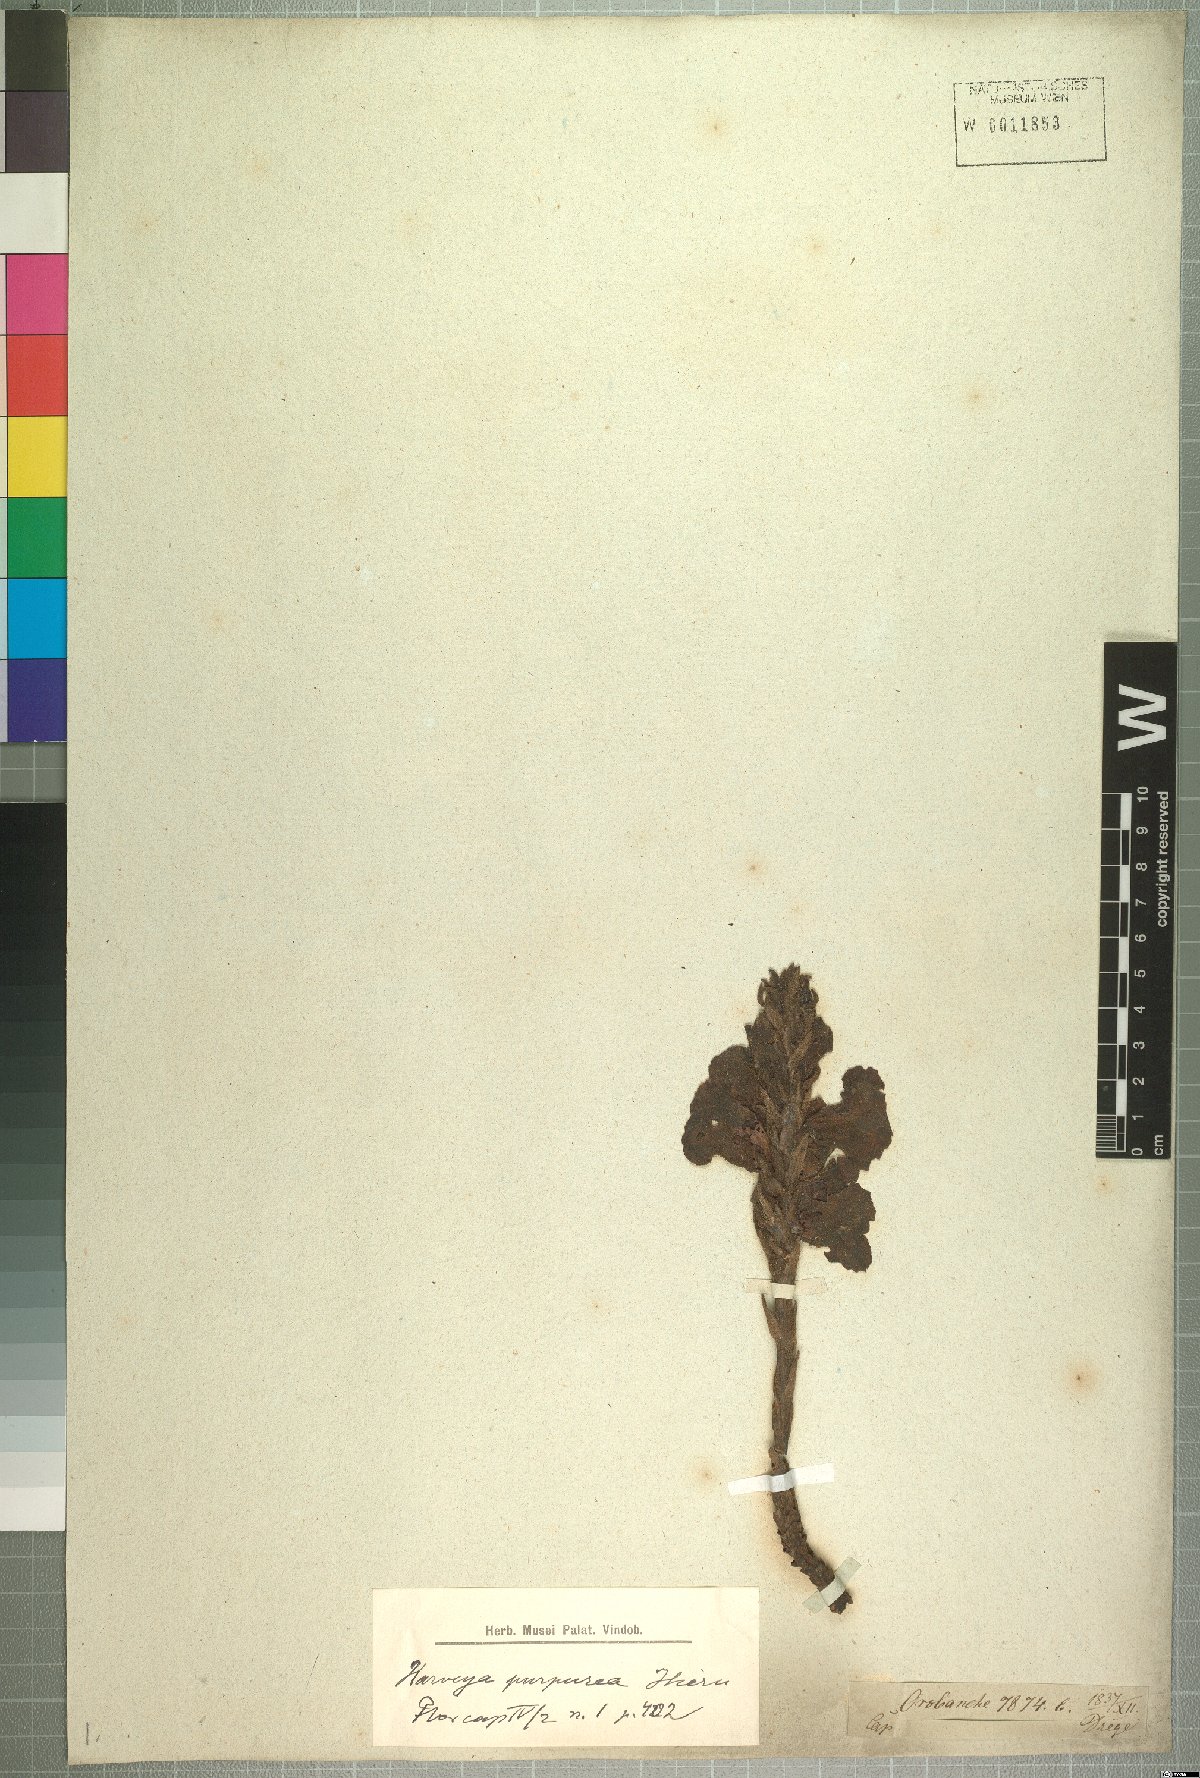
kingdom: Plantae
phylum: Tracheophyta
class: Magnoliopsida
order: Lamiales
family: Orobanchaceae
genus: Harveya
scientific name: Harveya purpurea
